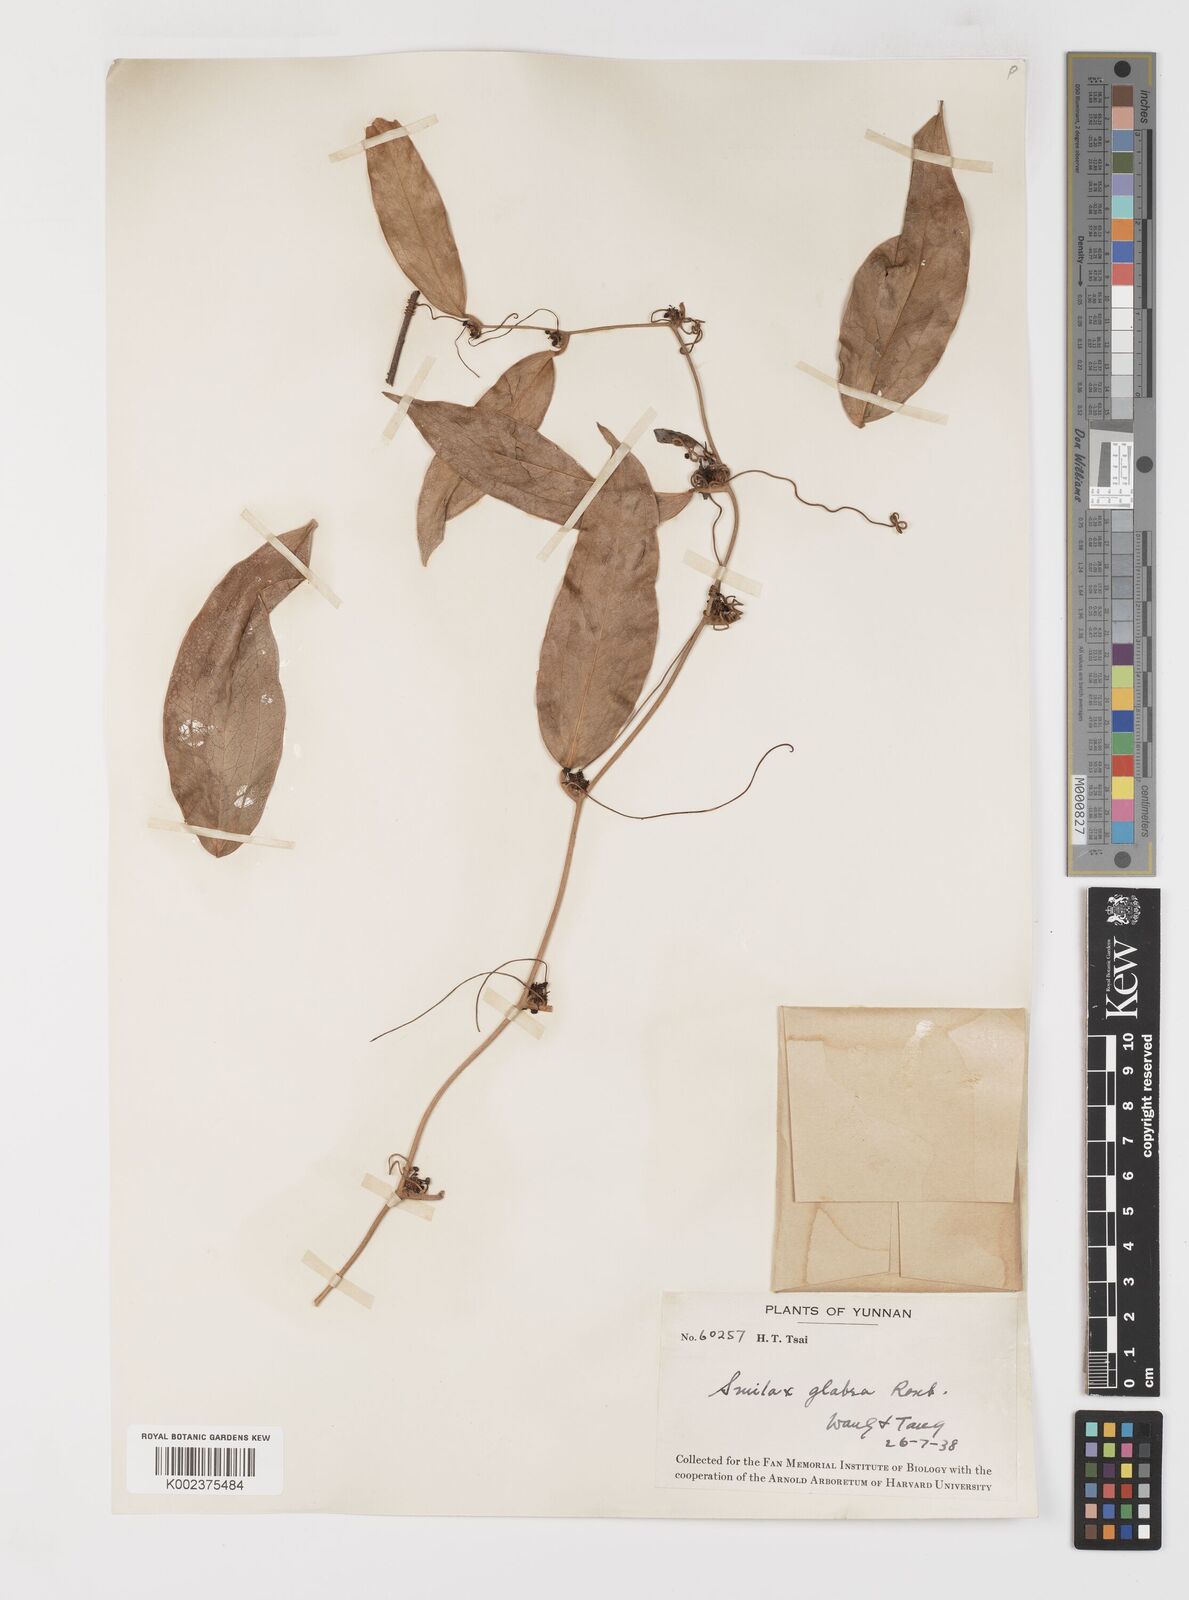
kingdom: Plantae
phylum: Tracheophyta
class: Liliopsida
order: Liliales
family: Smilacaceae
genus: Smilax
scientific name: Smilax glabra
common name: Chinese smilax
